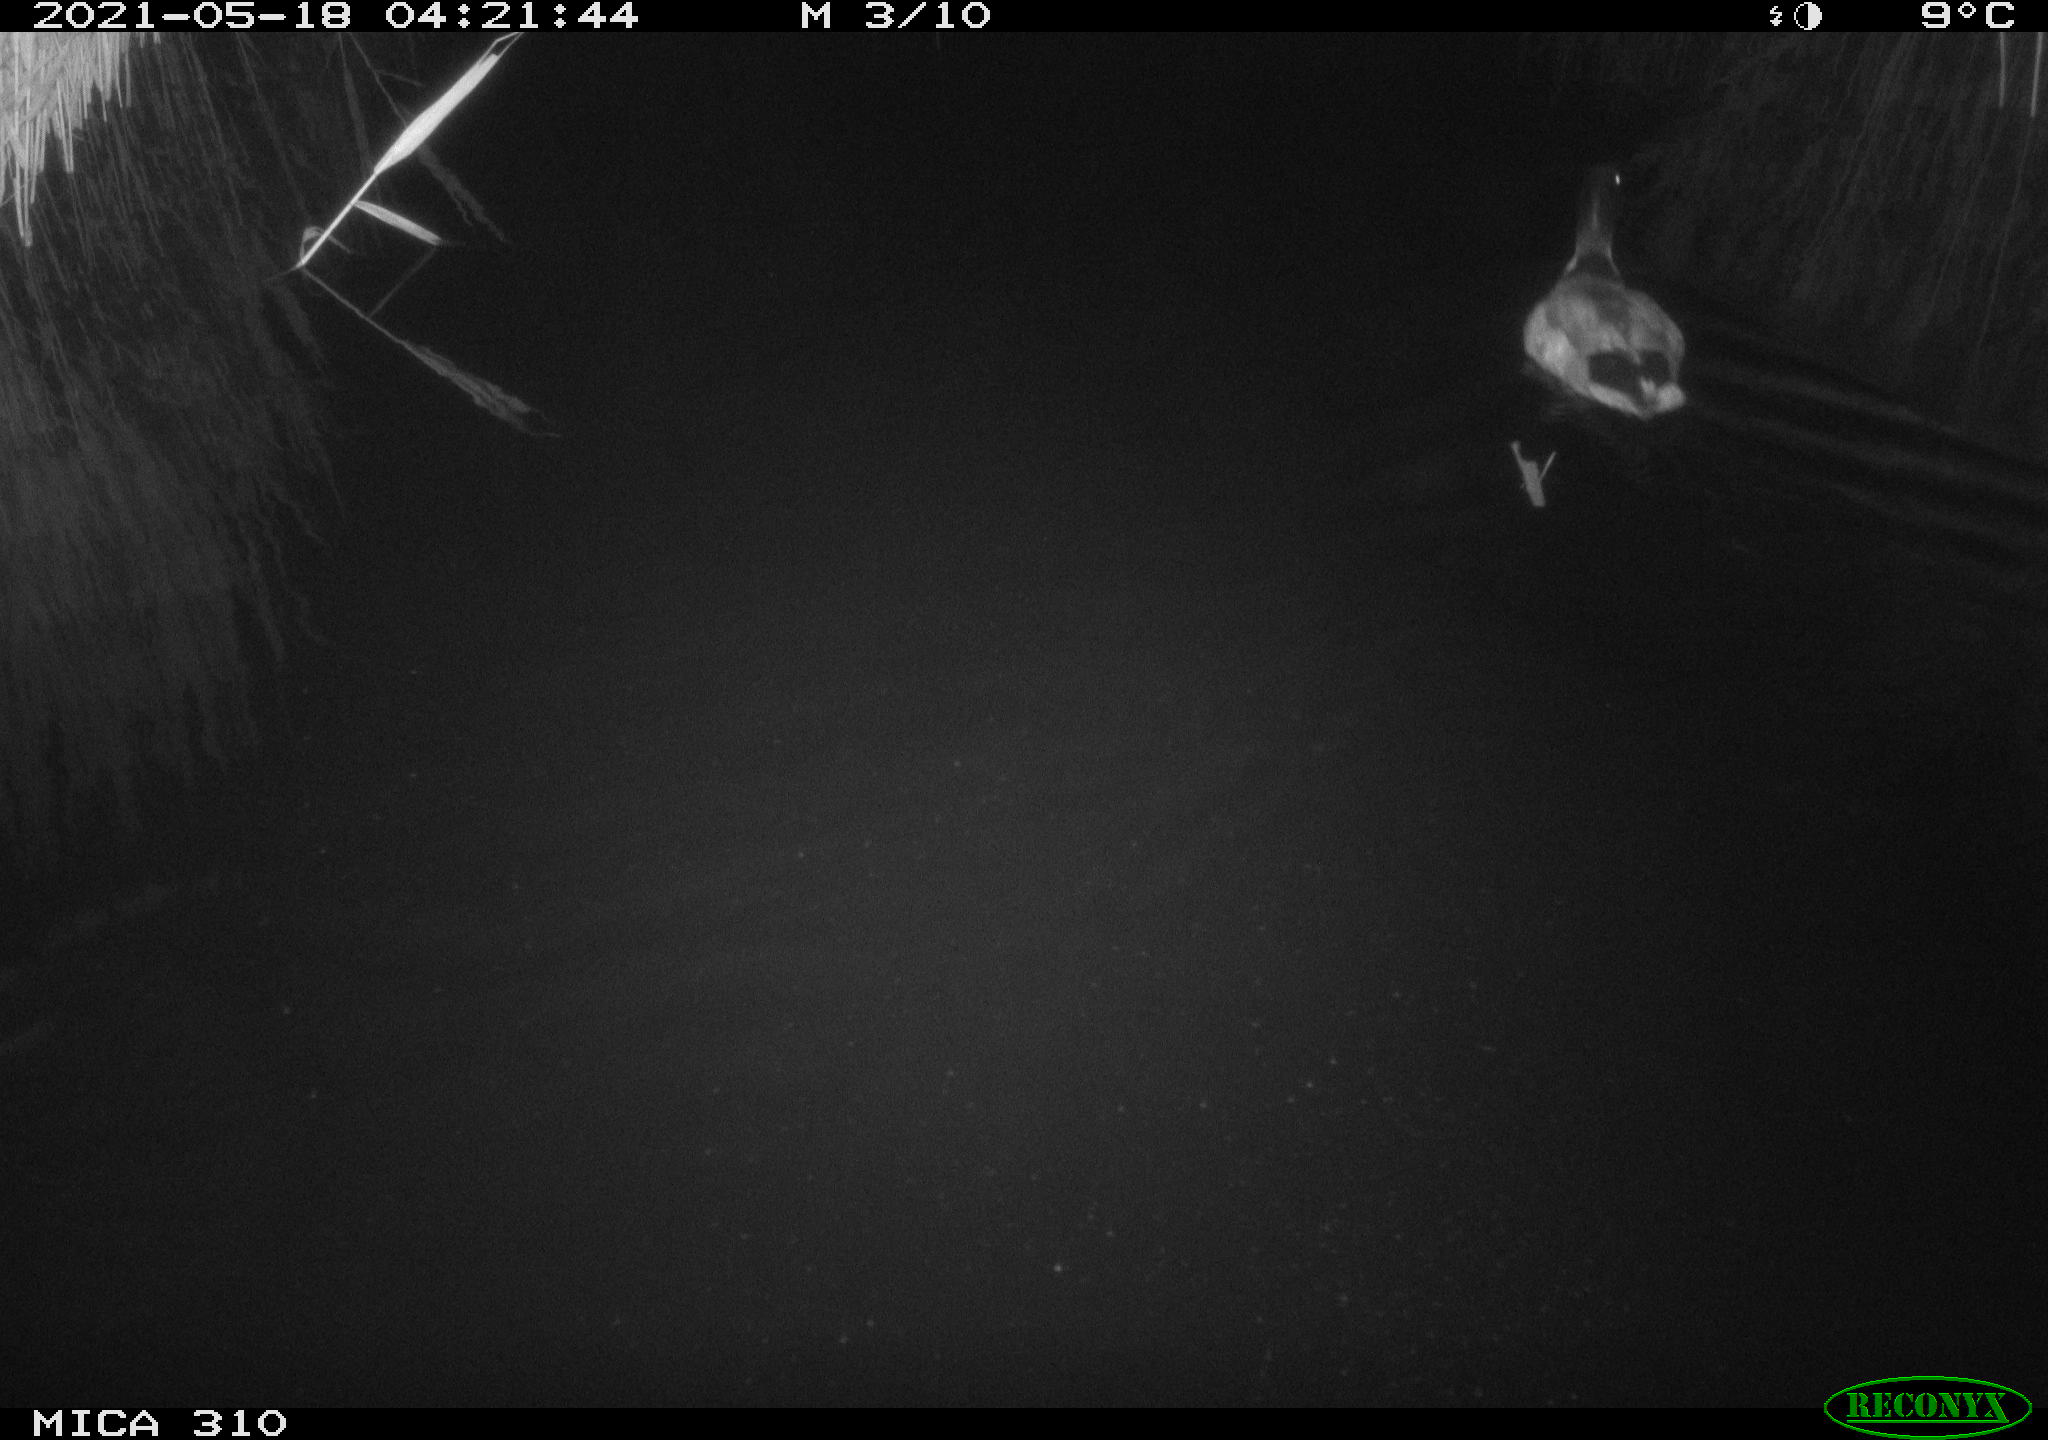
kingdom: Animalia
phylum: Chordata
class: Aves
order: Anseriformes
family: Anatidae
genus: Anas
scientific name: Anas platyrhynchos
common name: Mallard
